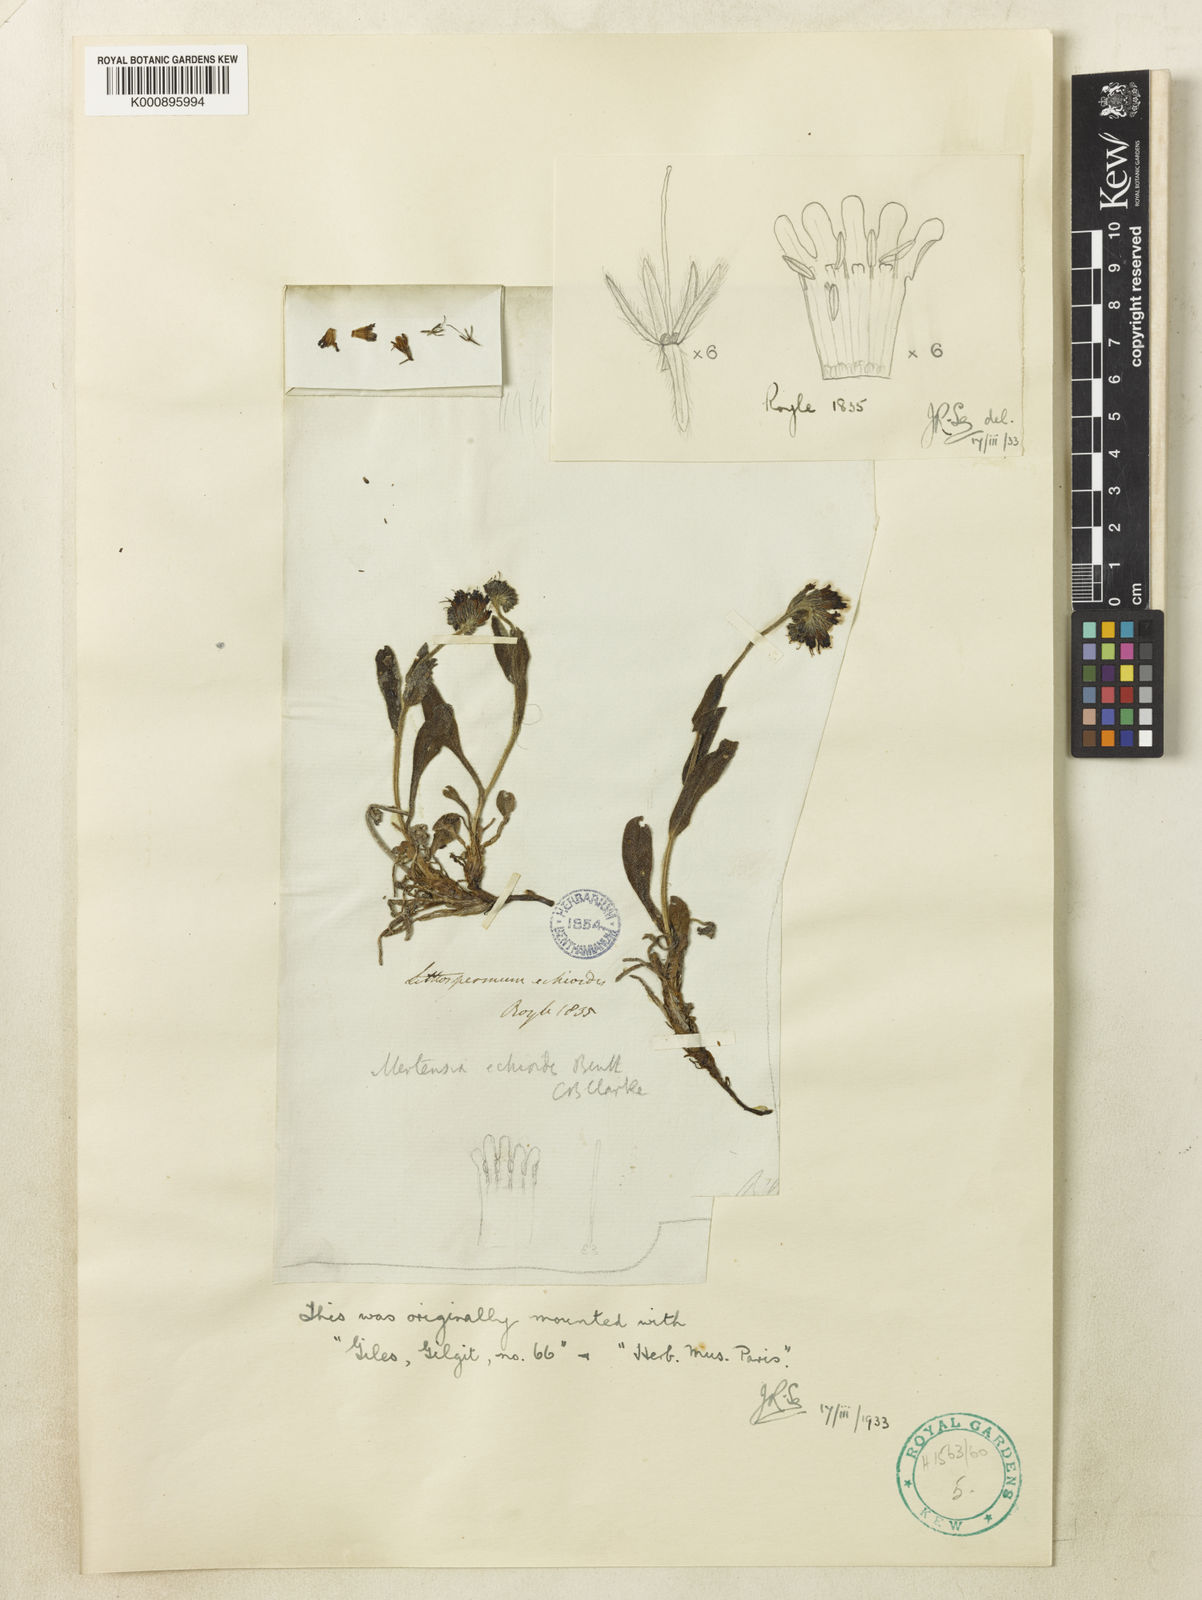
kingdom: Plantae
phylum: Tracheophyta
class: Magnoliopsida
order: Boraginales
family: Boraginaceae
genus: Decalepidanthus
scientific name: Decalepidanthus echioides
